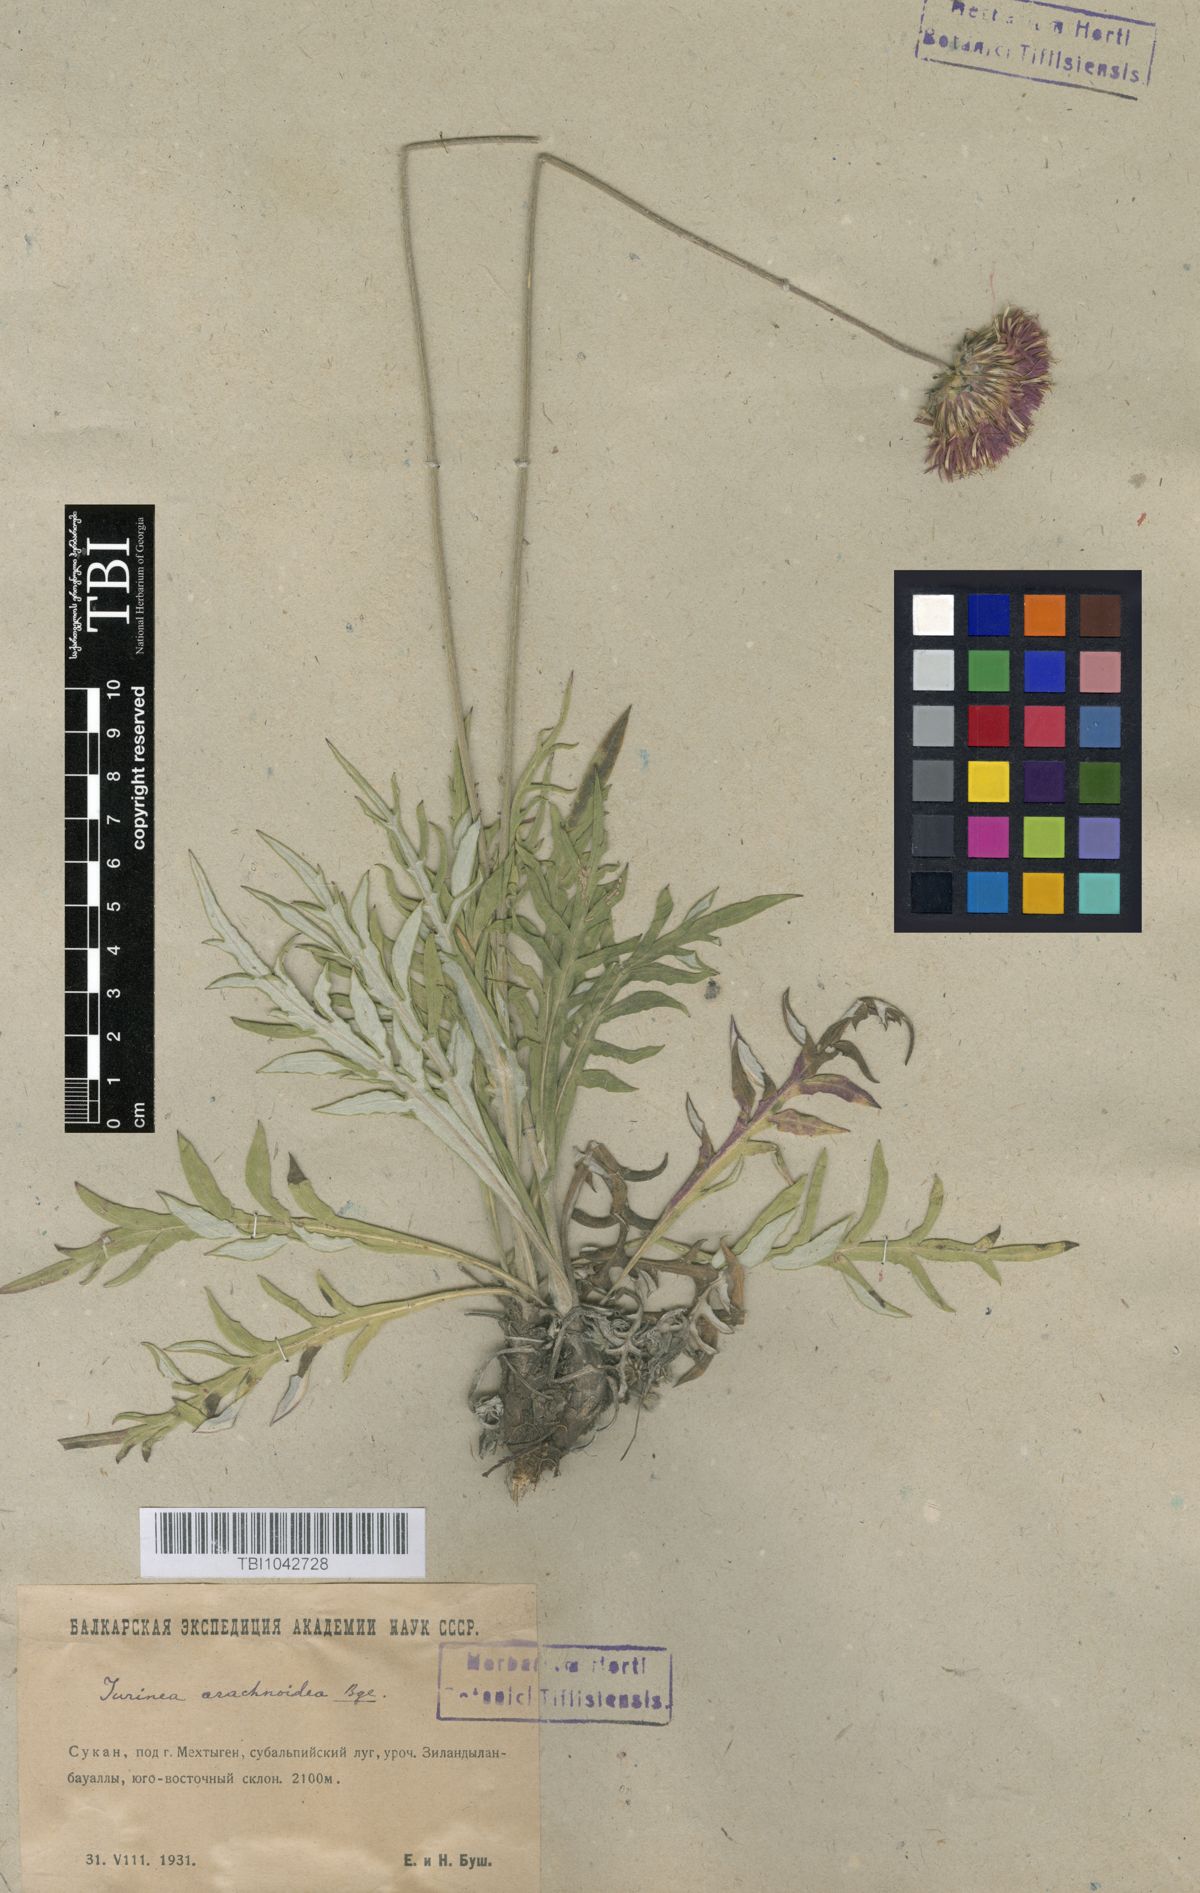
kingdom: Plantae
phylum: Tracheophyta
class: Magnoliopsida
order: Asterales
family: Asteraceae
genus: Jurinea
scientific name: Jurinea blanda
